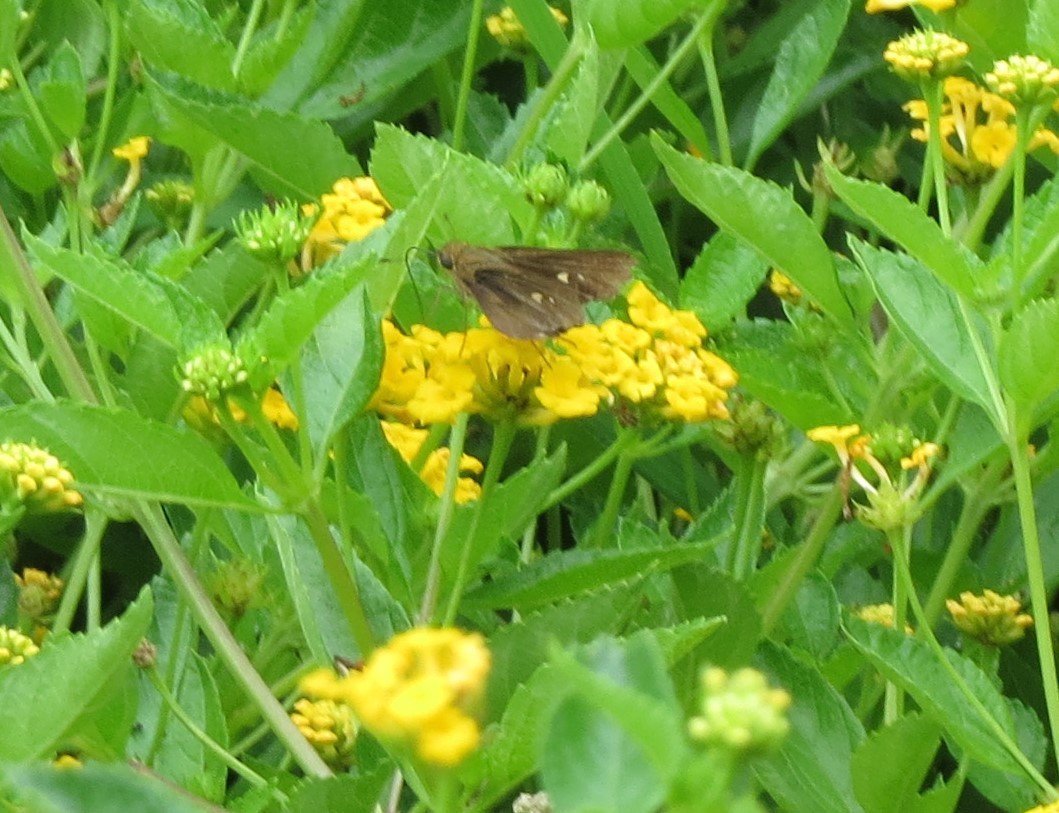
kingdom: Animalia
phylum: Arthropoda
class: Insecta
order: Lepidoptera
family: Hesperiidae
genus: Panoquina
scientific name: Panoquina ocola
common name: Ocola Skipper
